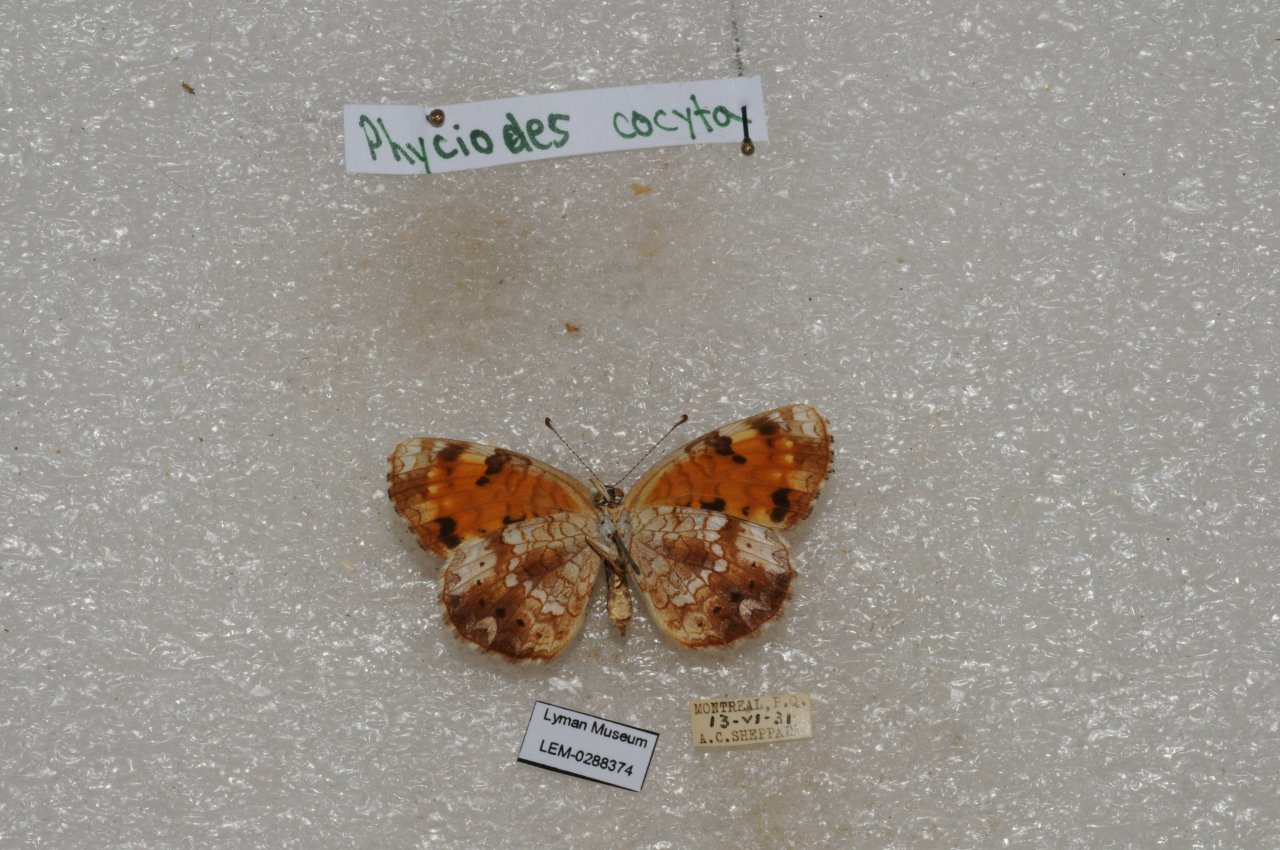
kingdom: Animalia
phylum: Arthropoda
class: Insecta
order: Lepidoptera
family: Nymphalidae
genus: Phyciodes
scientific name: Phyciodes tharos
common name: Northern Crescent
